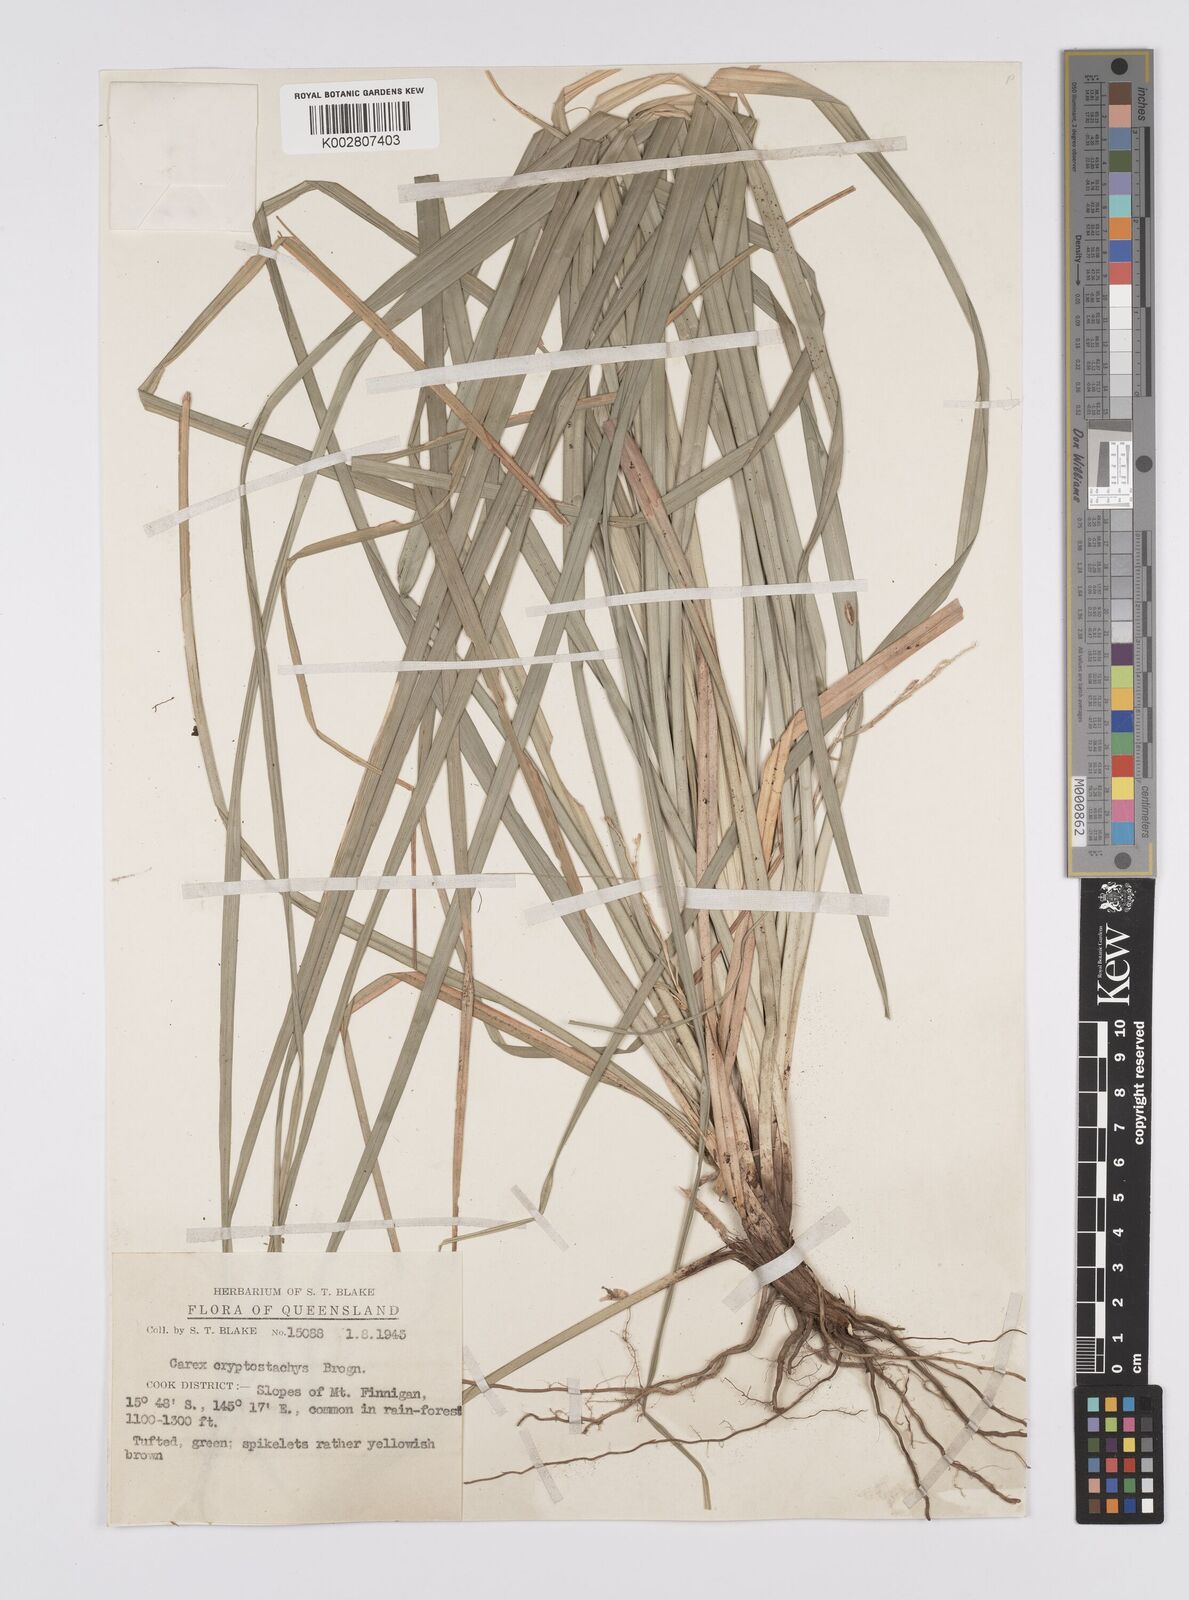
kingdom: Plantae
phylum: Tracheophyta
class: Liliopsida
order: Poales
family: Cyperaceae
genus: Carex
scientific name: Carex cryptostachys
